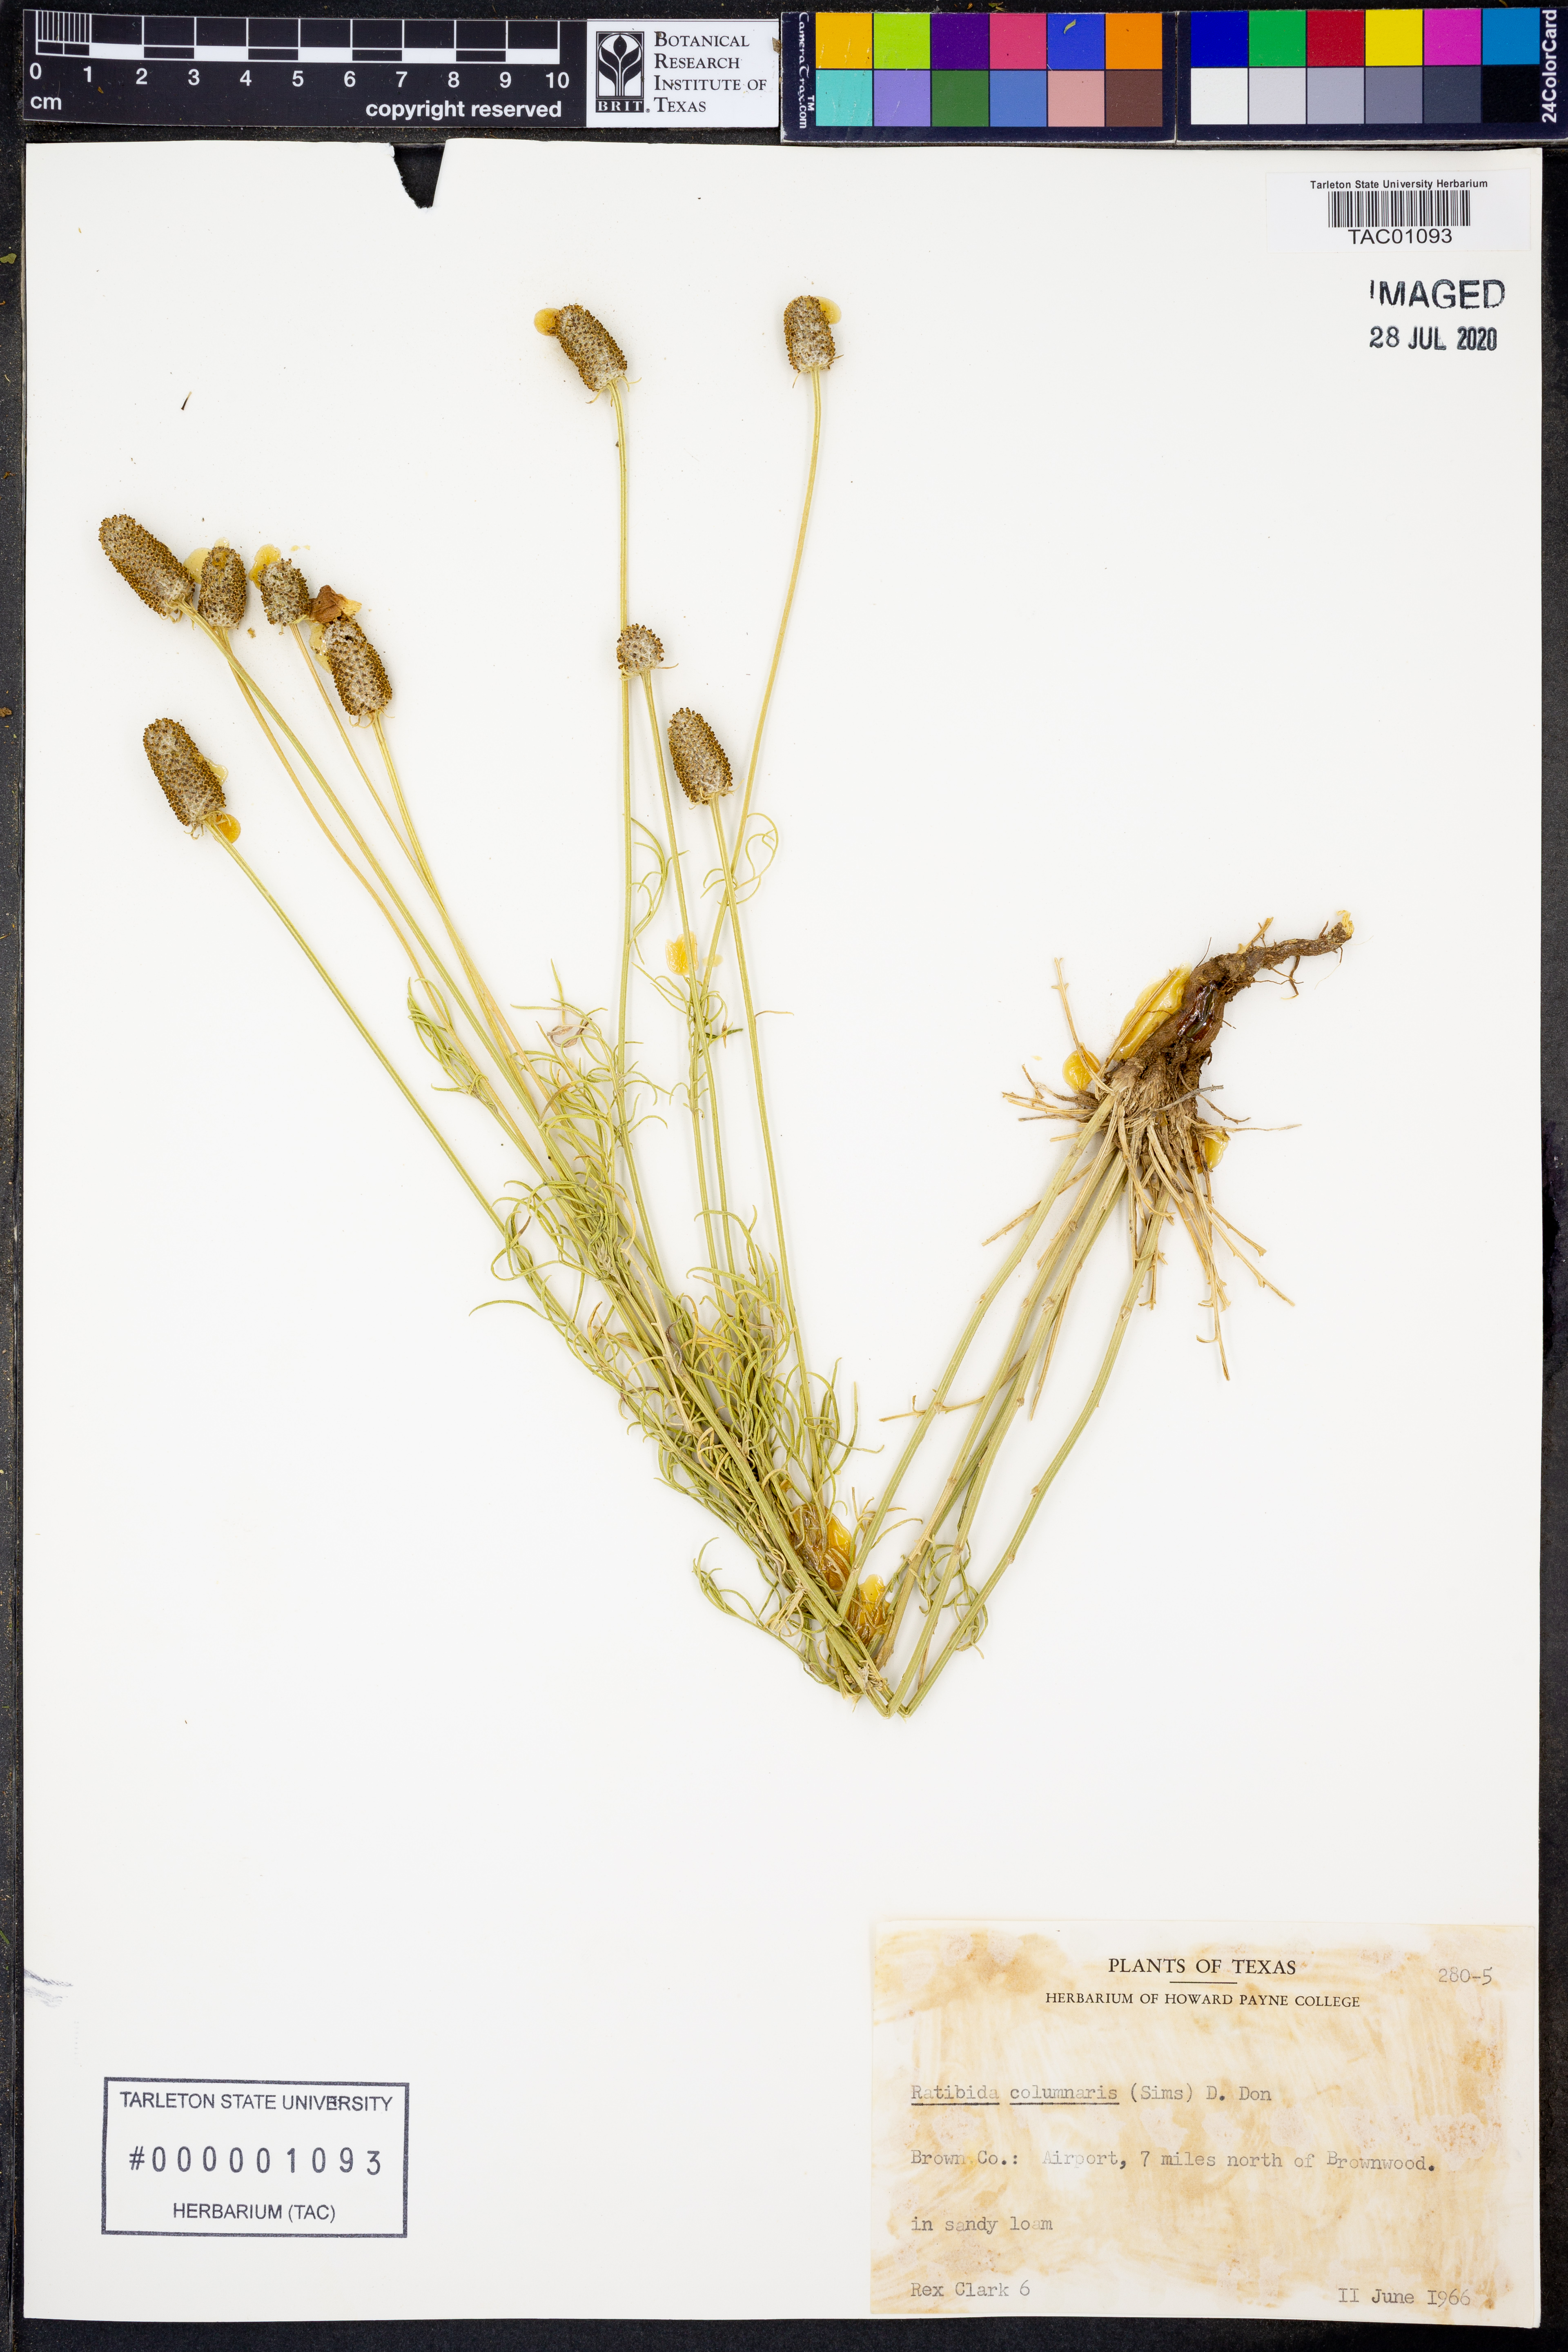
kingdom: Plantae
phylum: Tracheophyta
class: Magnoliopsida
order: Asterales
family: Asteraceae
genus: Ratibida
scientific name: Ratibida columnifera
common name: Prairie coneflower
